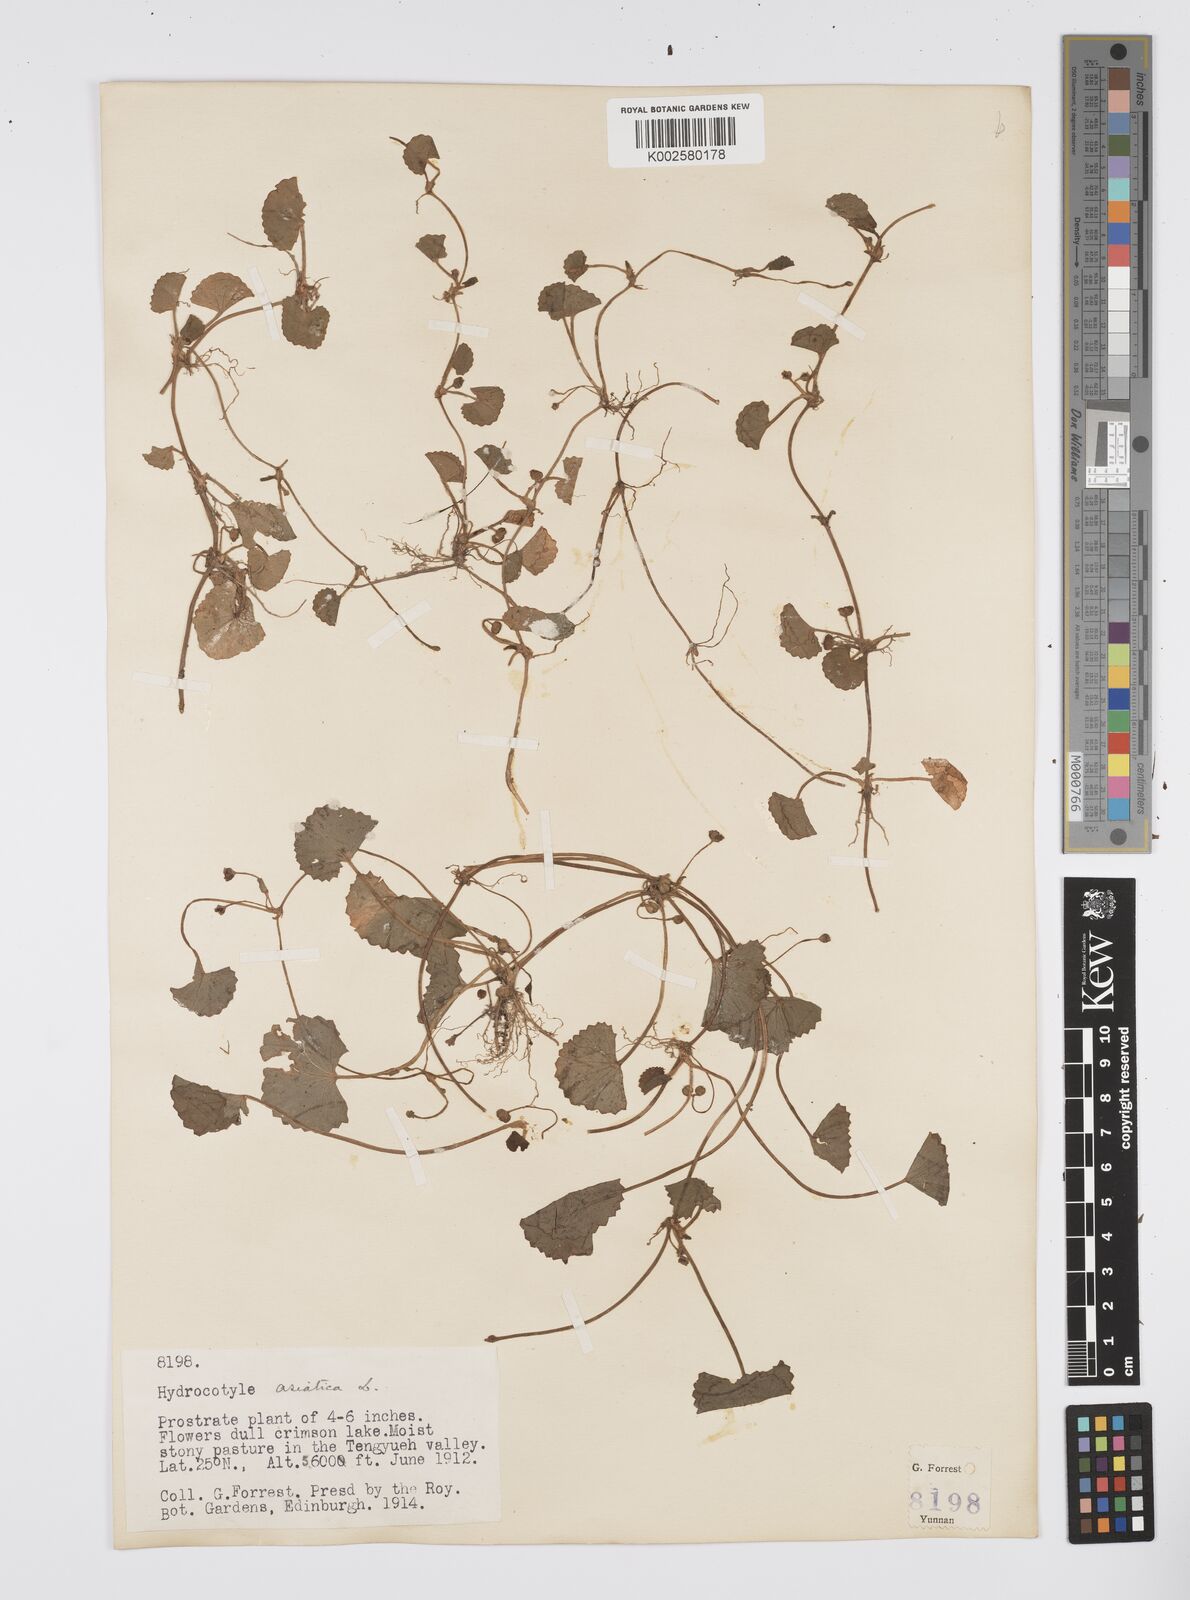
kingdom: Plantae
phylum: Tracheophyta
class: Magnoliopsida
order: Apiales
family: Apiaceae
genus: Centella
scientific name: Centella asiatica
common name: Spadeleaf
